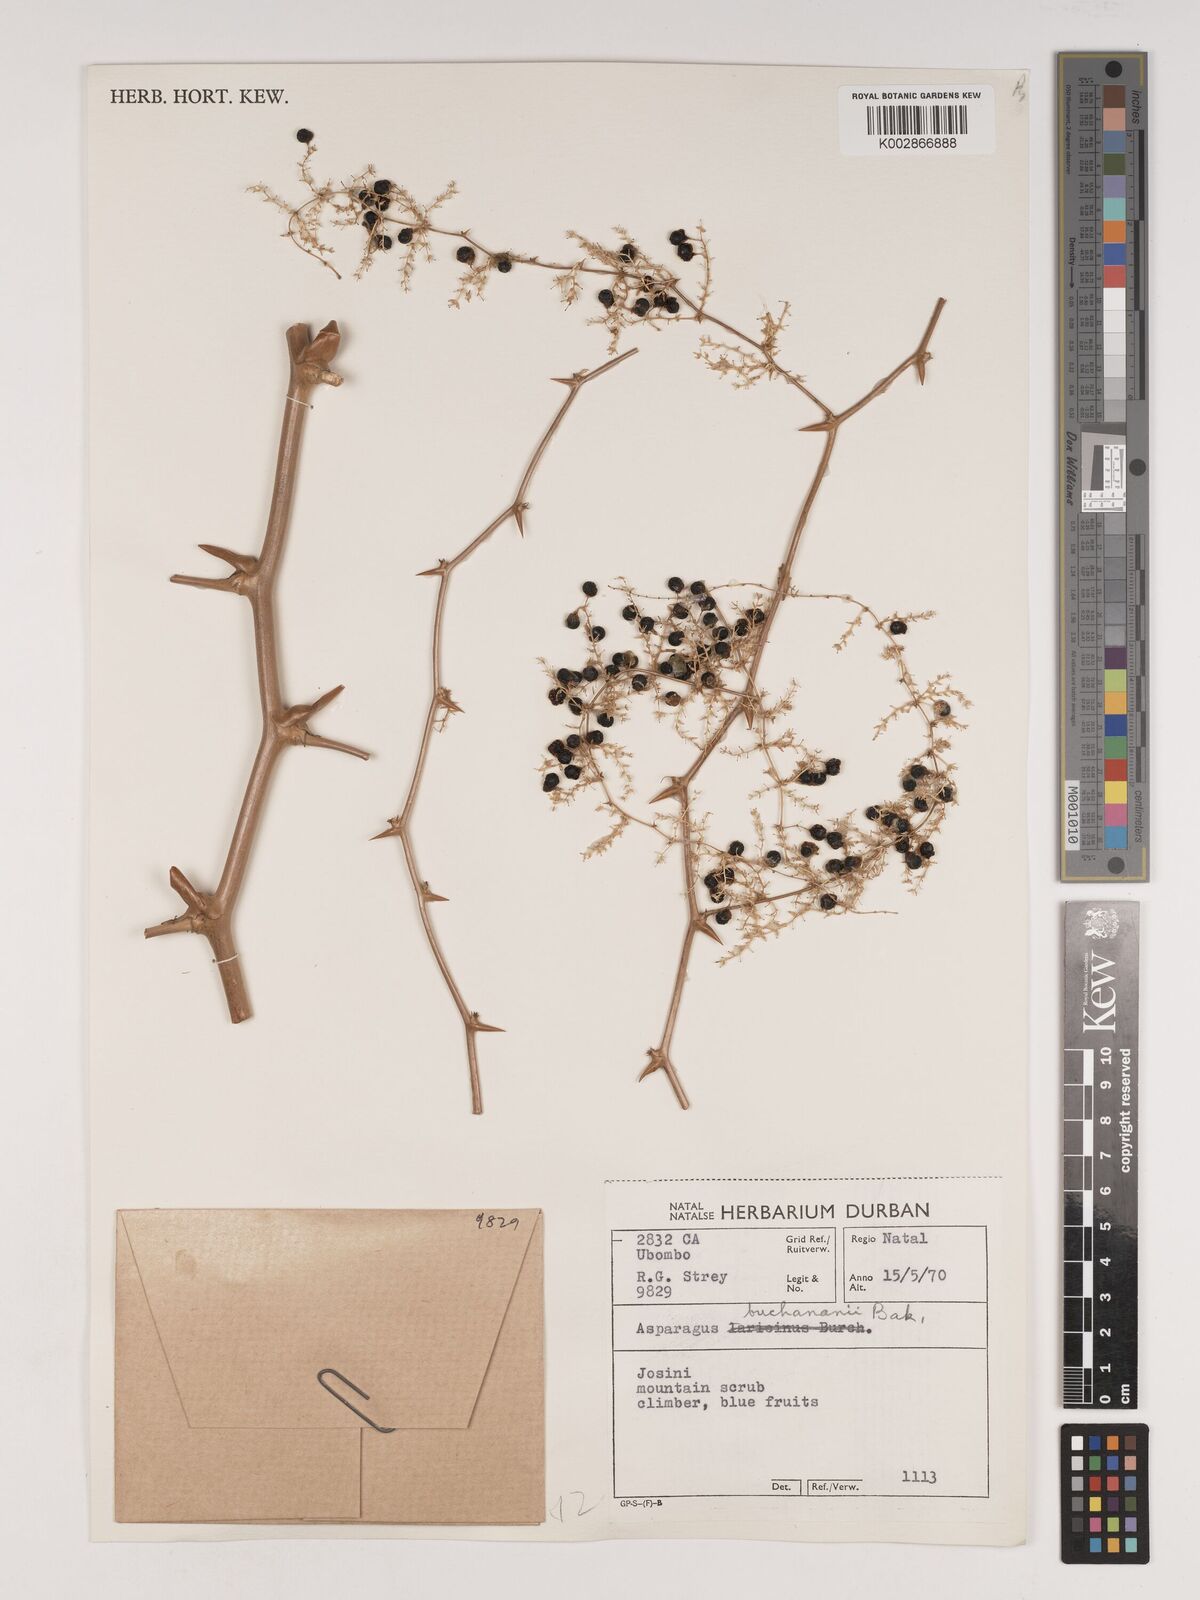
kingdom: Plantae
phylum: Tracheophyta
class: Liliopsida
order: Asparagales
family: Asparagaceae
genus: Asparagus
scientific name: Asparagus buchananii
